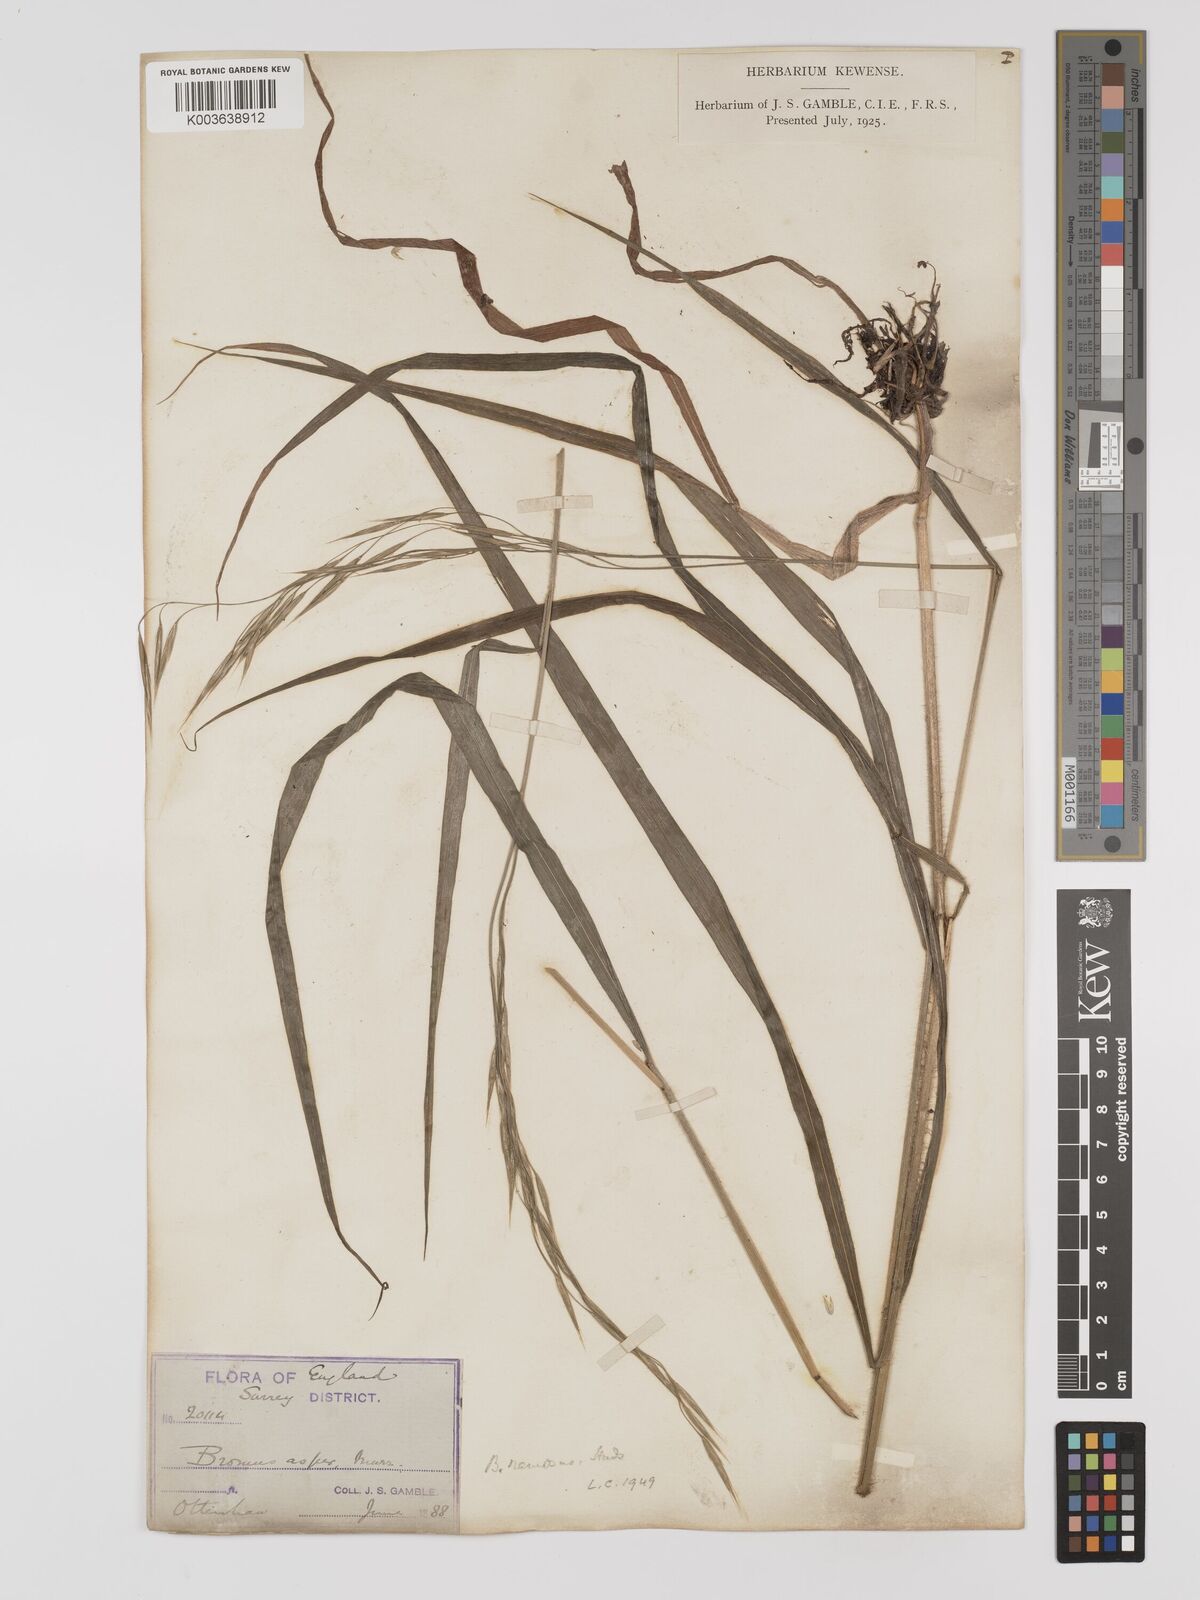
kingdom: Plantae
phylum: Tracheophyta
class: Liliopsida
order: Poales
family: Poaceae
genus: Bromus
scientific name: Bromus ramosus
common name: Hairy brome
